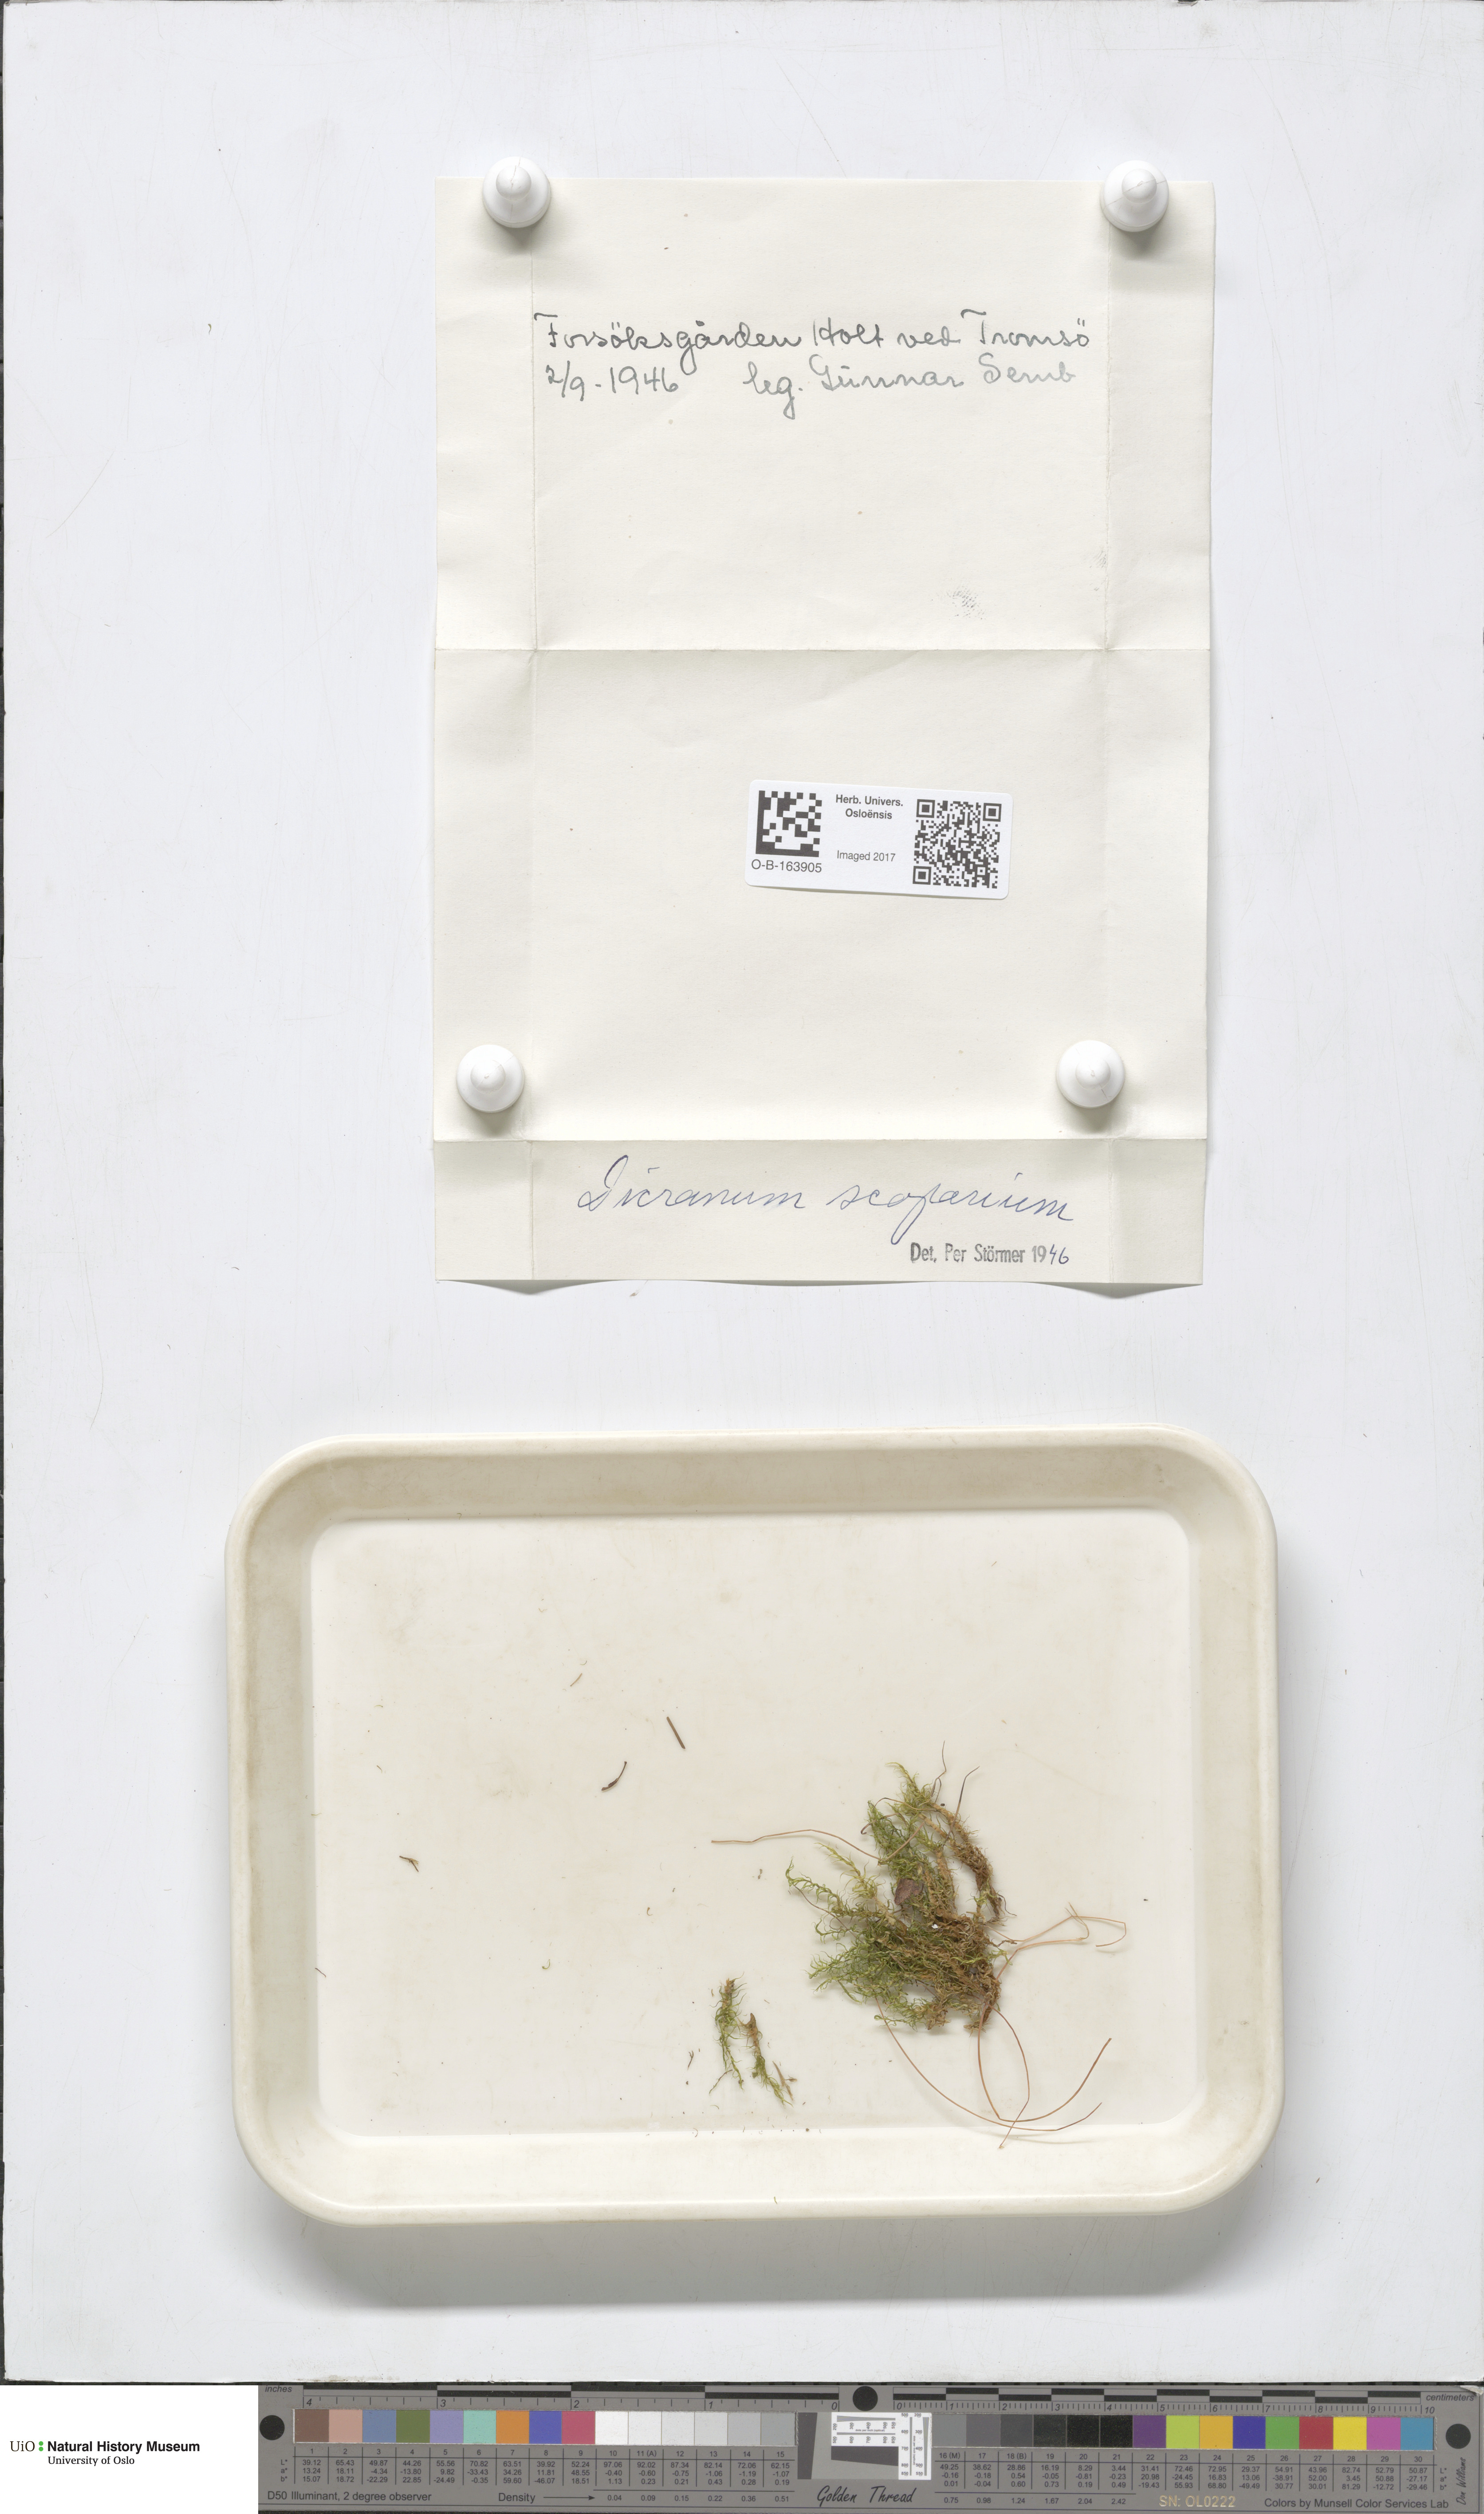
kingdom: Plantae
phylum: Bryophyta
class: Bryopsida
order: Dicranales
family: Dicranaceae
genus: Dicranum
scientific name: Dicranum scoparium
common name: Broom fork-moss
